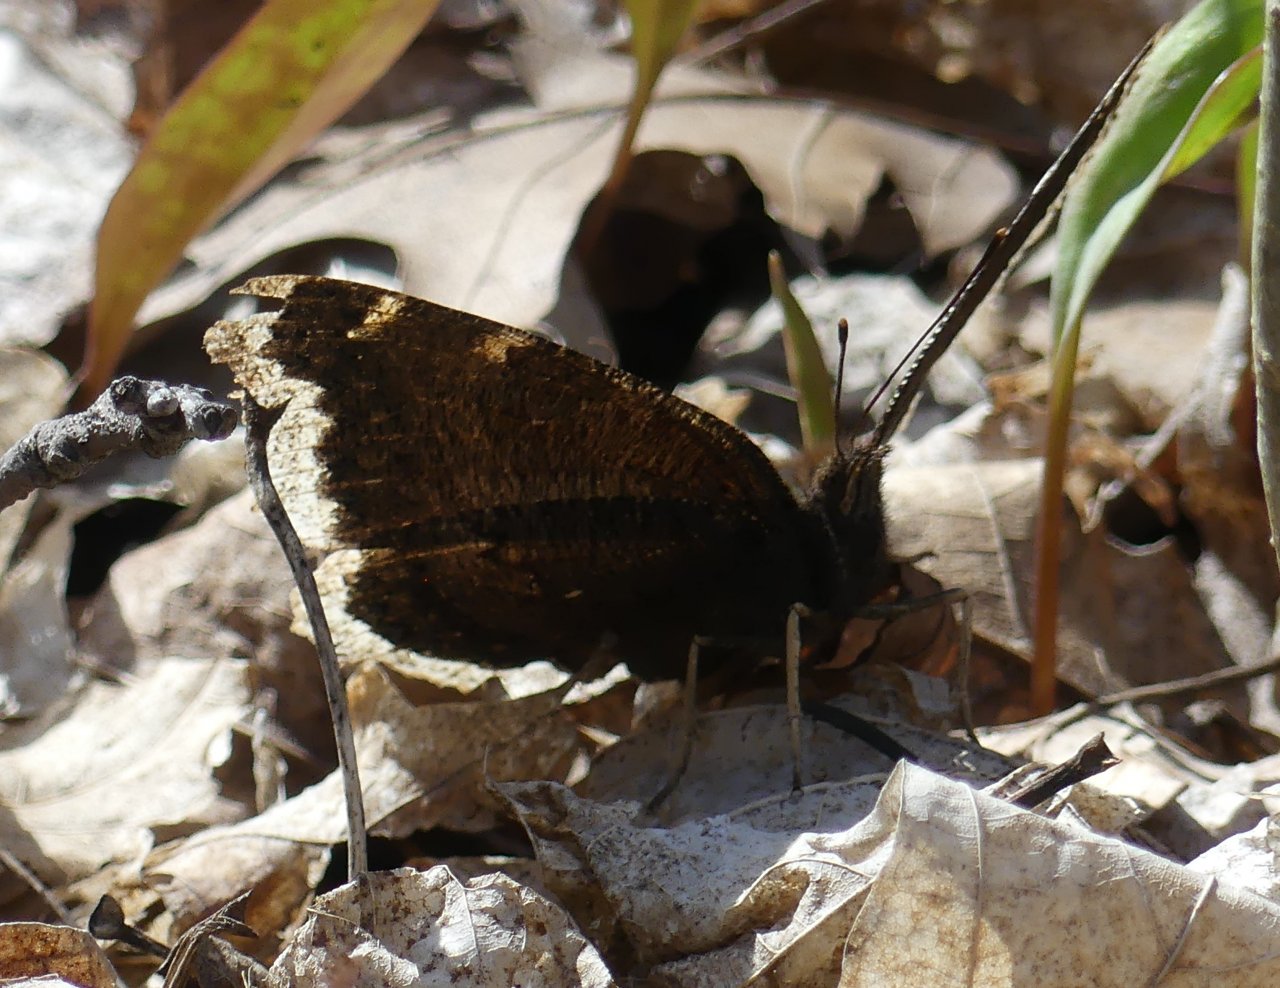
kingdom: Animalia
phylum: Arthropoda
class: Insecta
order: Lepidoptera
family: Nymphalidae
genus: Nymphalis
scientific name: Nymphalis antiopa
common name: Mourning Cloak
